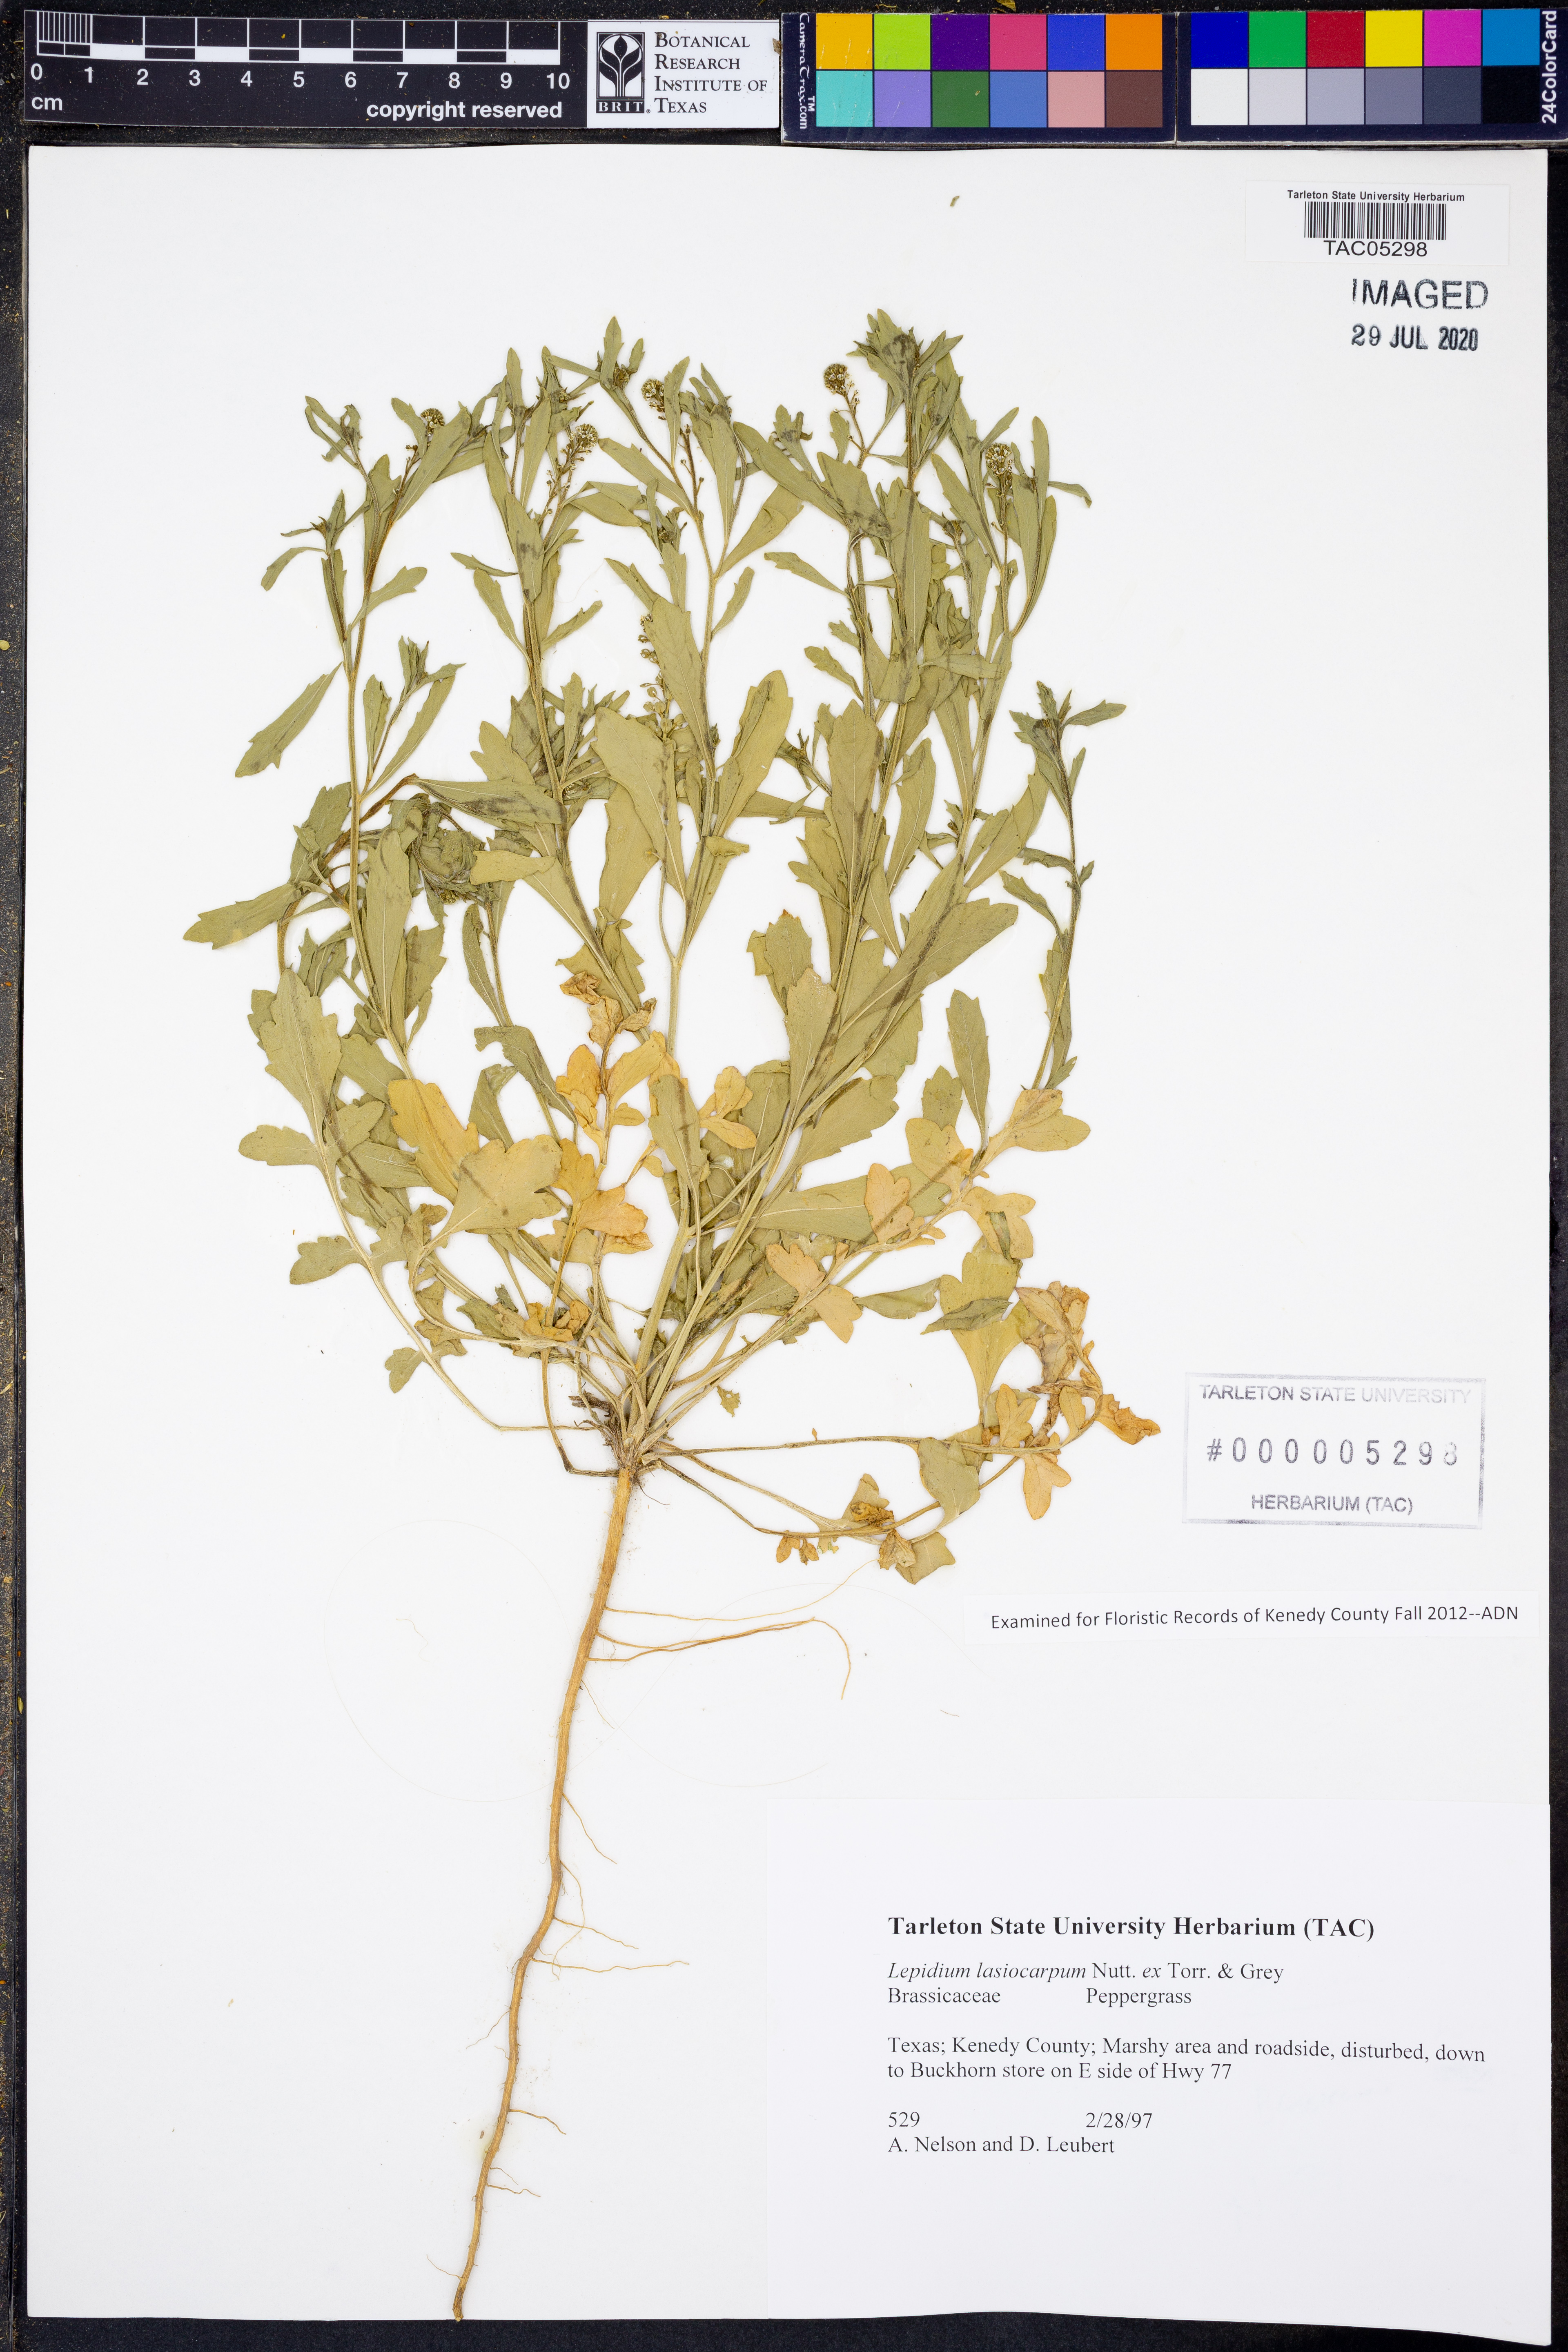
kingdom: Plantae
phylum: Tracheophyta
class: Magnoliopsida
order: Brassicales
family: Brassicaceae
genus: Lepidium
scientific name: Lepidium lasiocarpum
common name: Hairy-pod pepperwort
